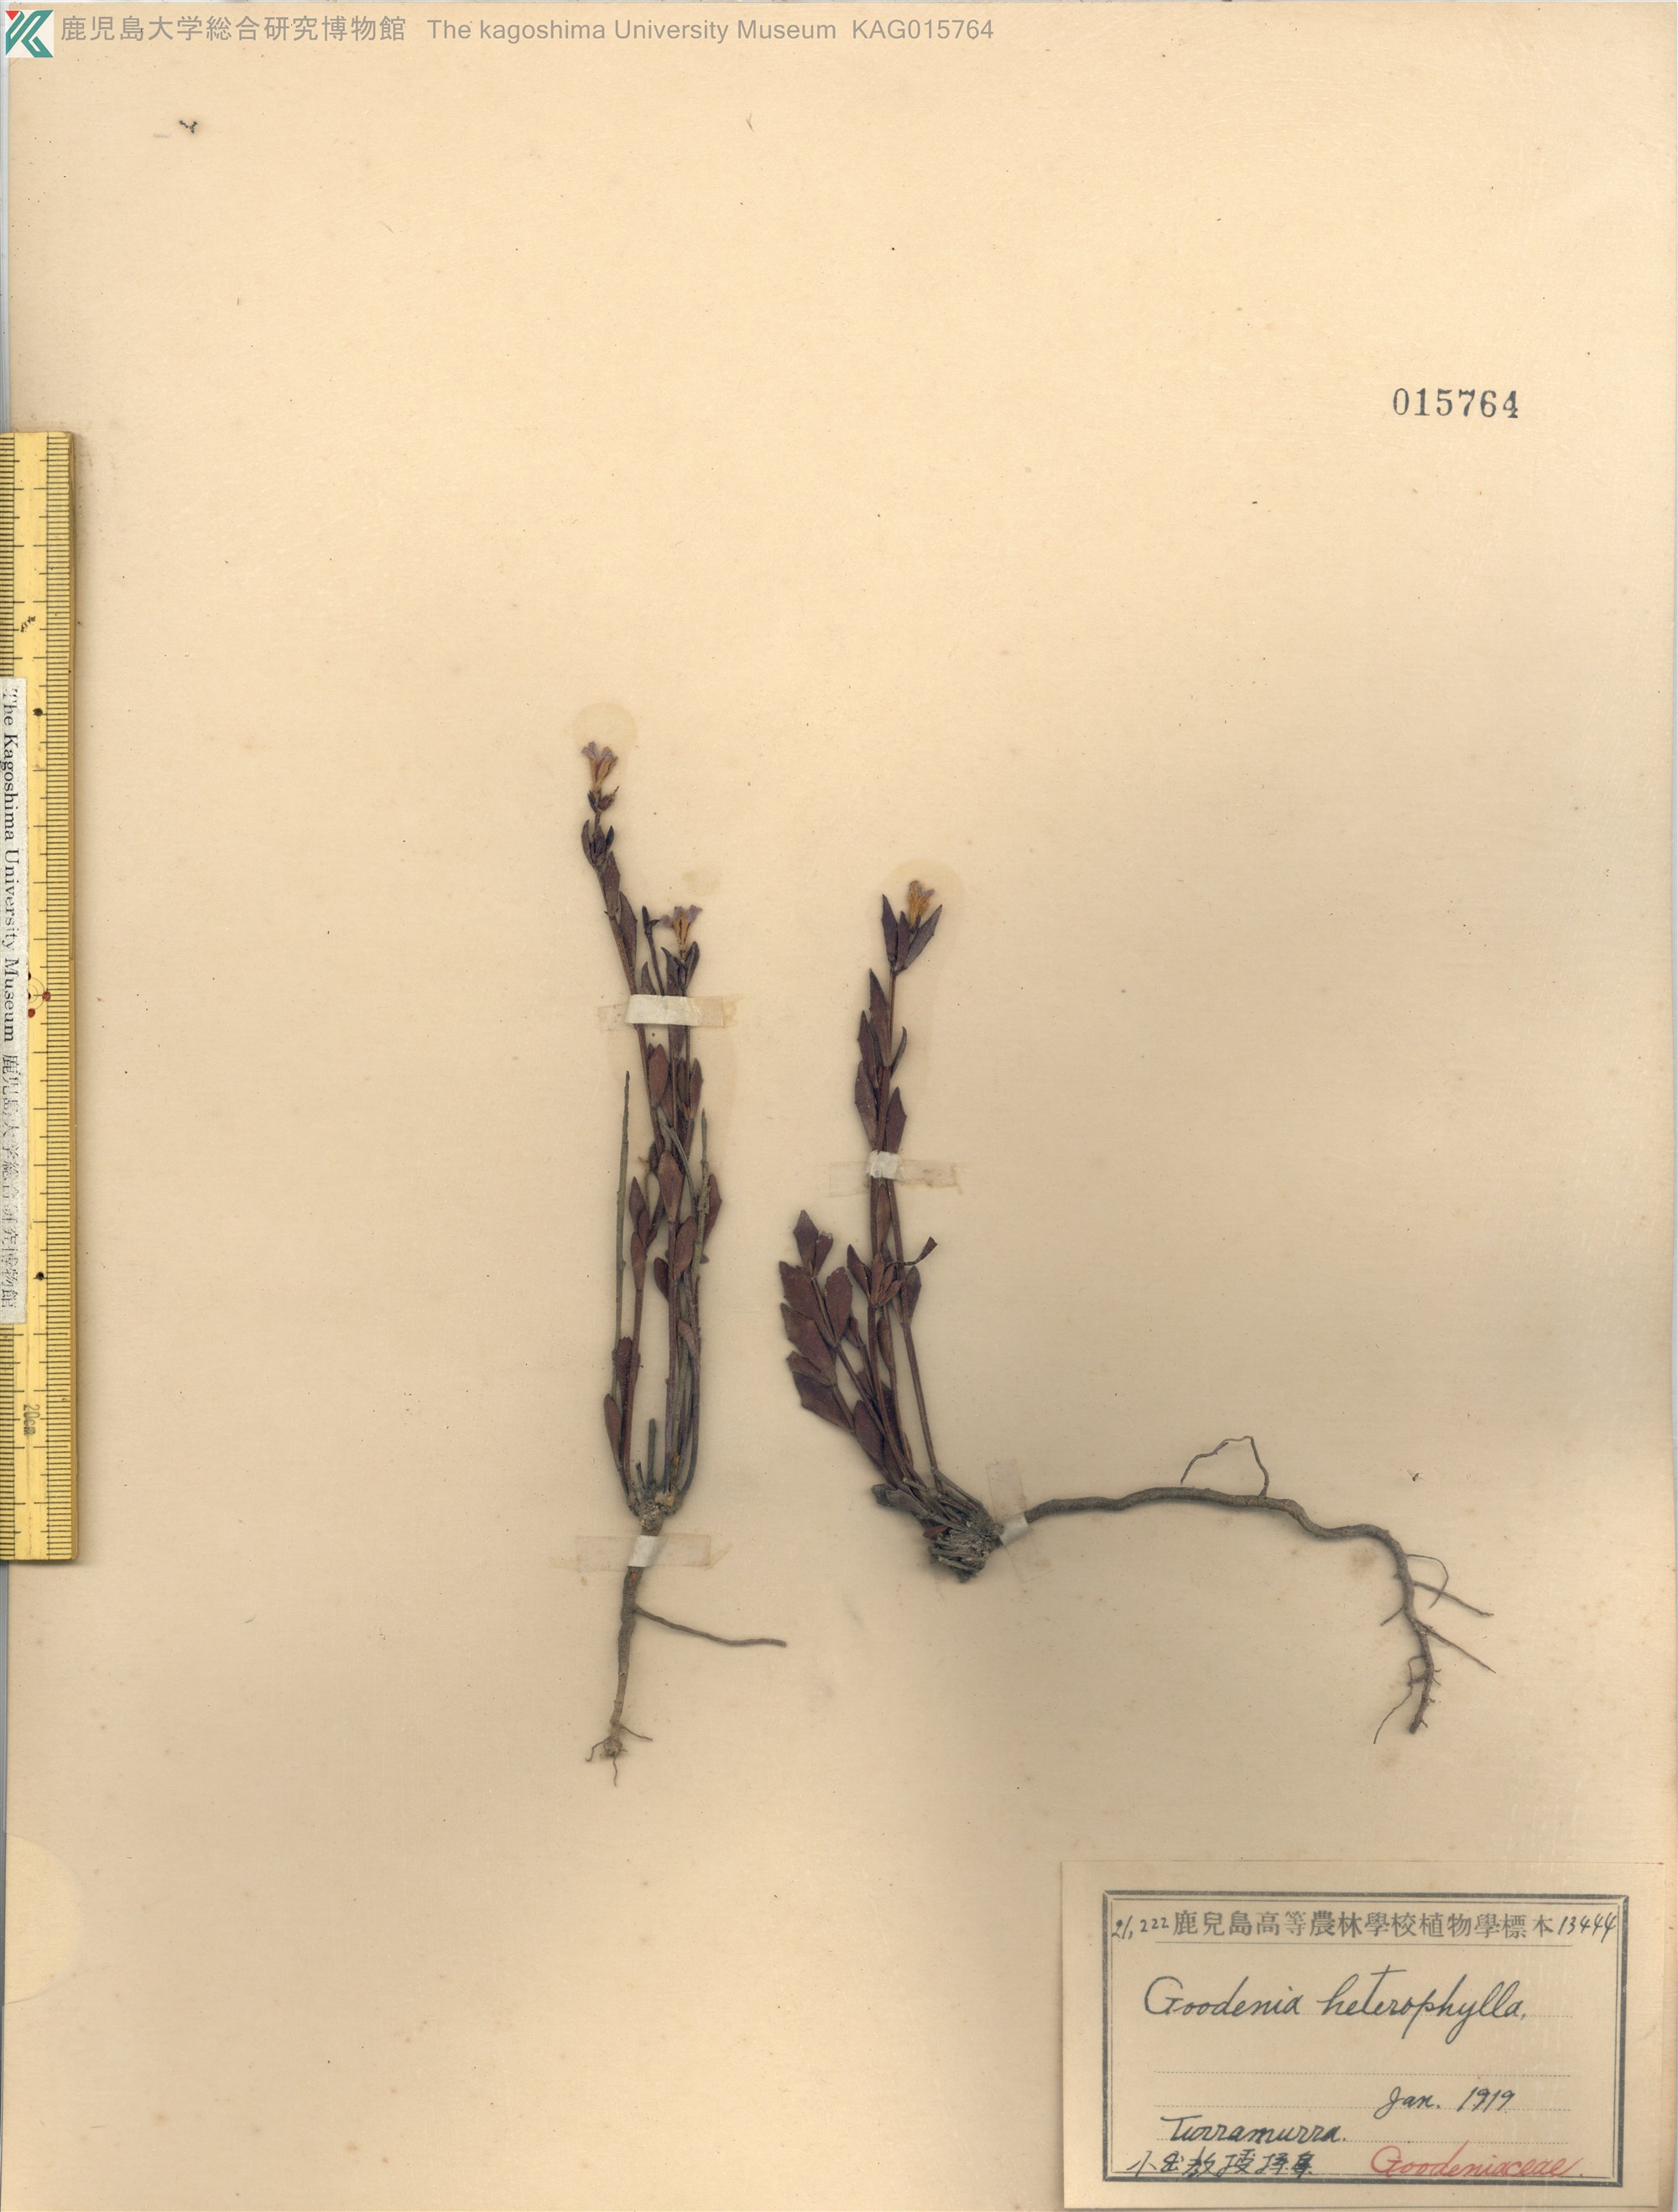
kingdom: Plantae
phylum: Tracheophyta
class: Magnoliopsida
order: Asterales
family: Goodeniaceae
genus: Goodenia
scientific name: Goodenia heterophylla
